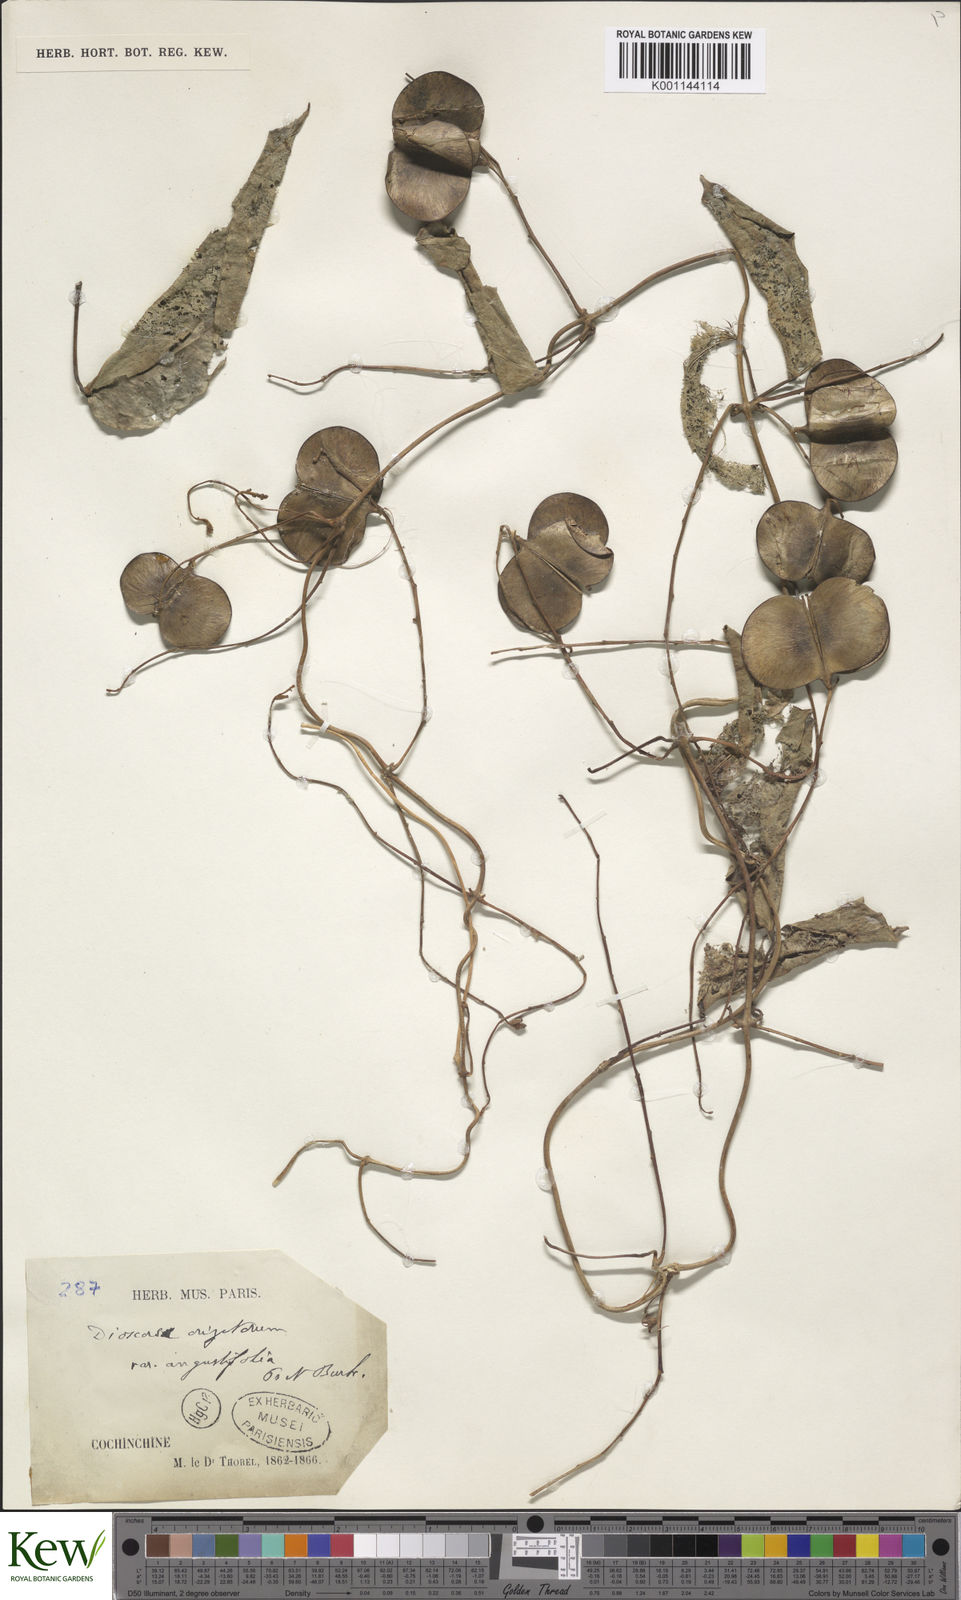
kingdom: Plantae
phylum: Tracheophyta
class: Liliopsida
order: Dioscoreales
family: Dioscoreaceae
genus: Dioscorea
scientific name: Dioscorea oryzetorum
